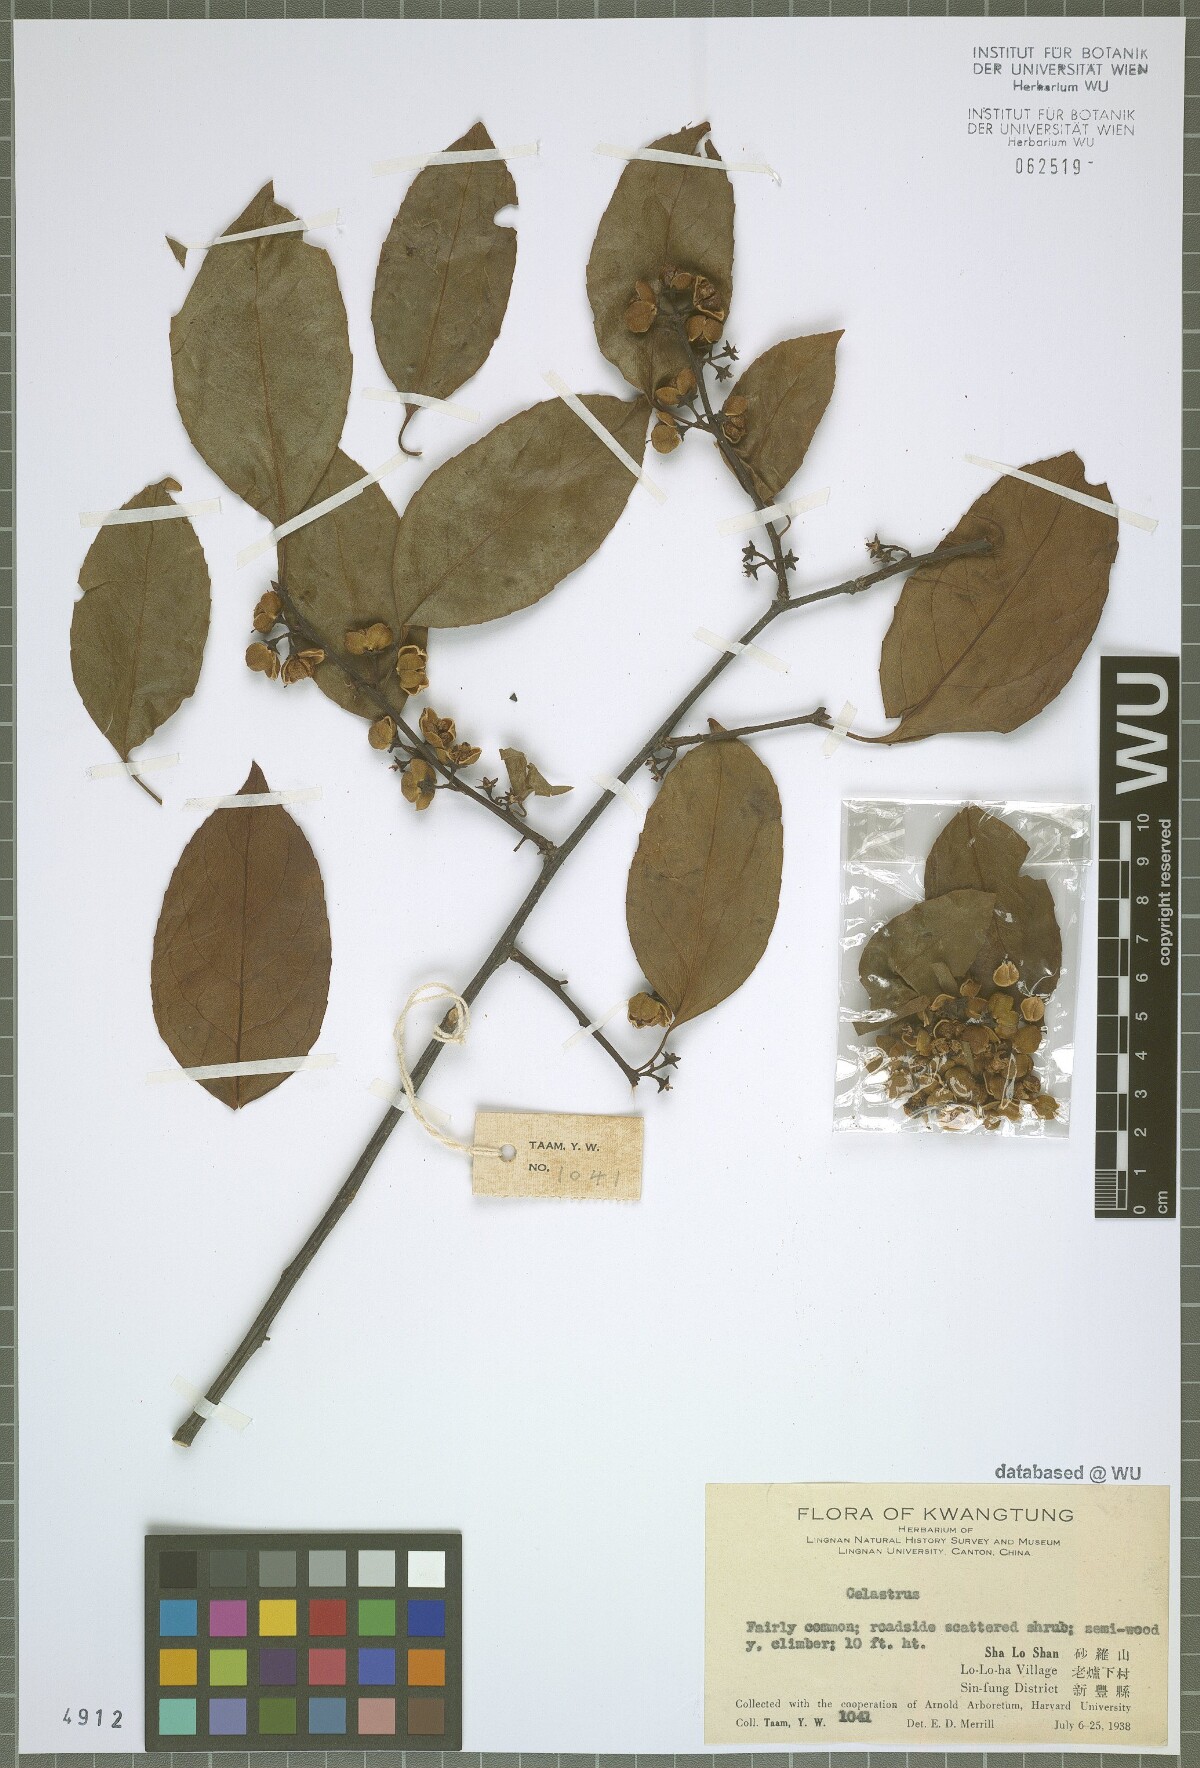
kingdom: Plantae
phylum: Tracheophyta
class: Magnoliopsida
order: Celastrales
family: Celastraceae
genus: Celastrus
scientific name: Celastrus
